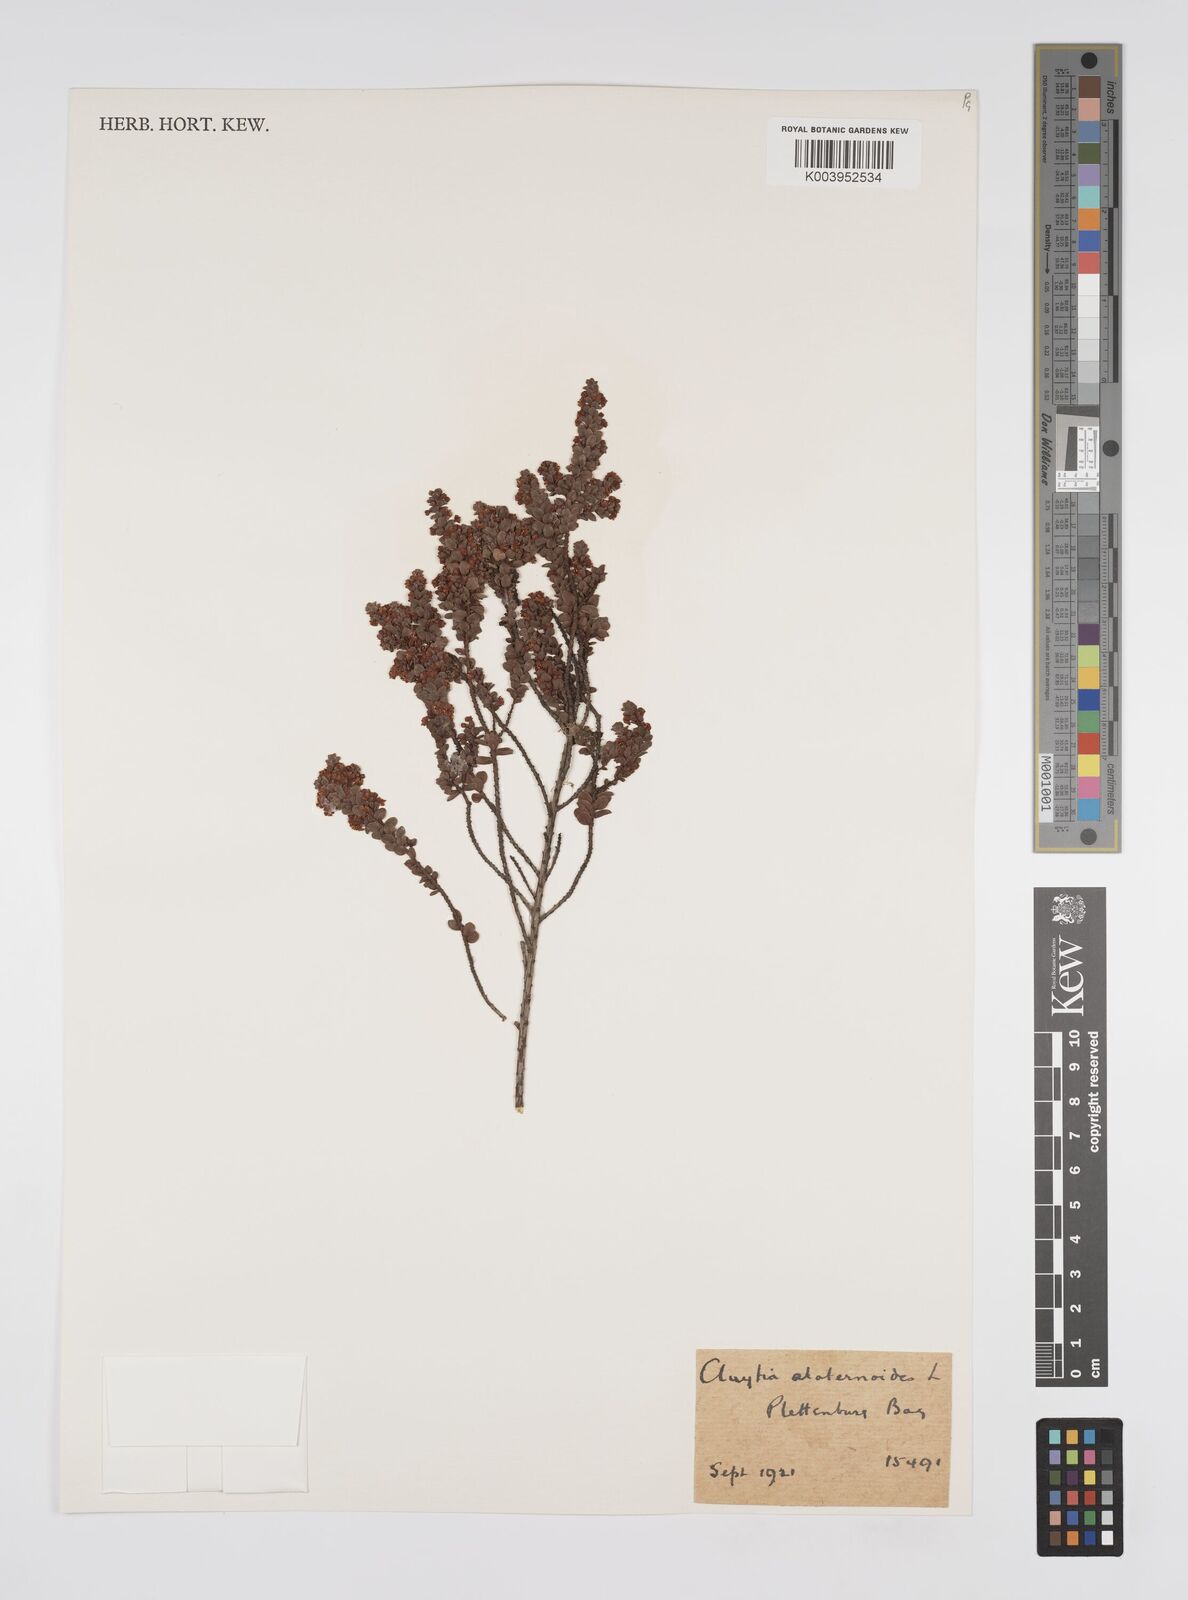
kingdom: Plantae
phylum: Tracheophyta
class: Magnoliopsida
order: Malpighiales
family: Peraceae
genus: Clutia
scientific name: Clutia
